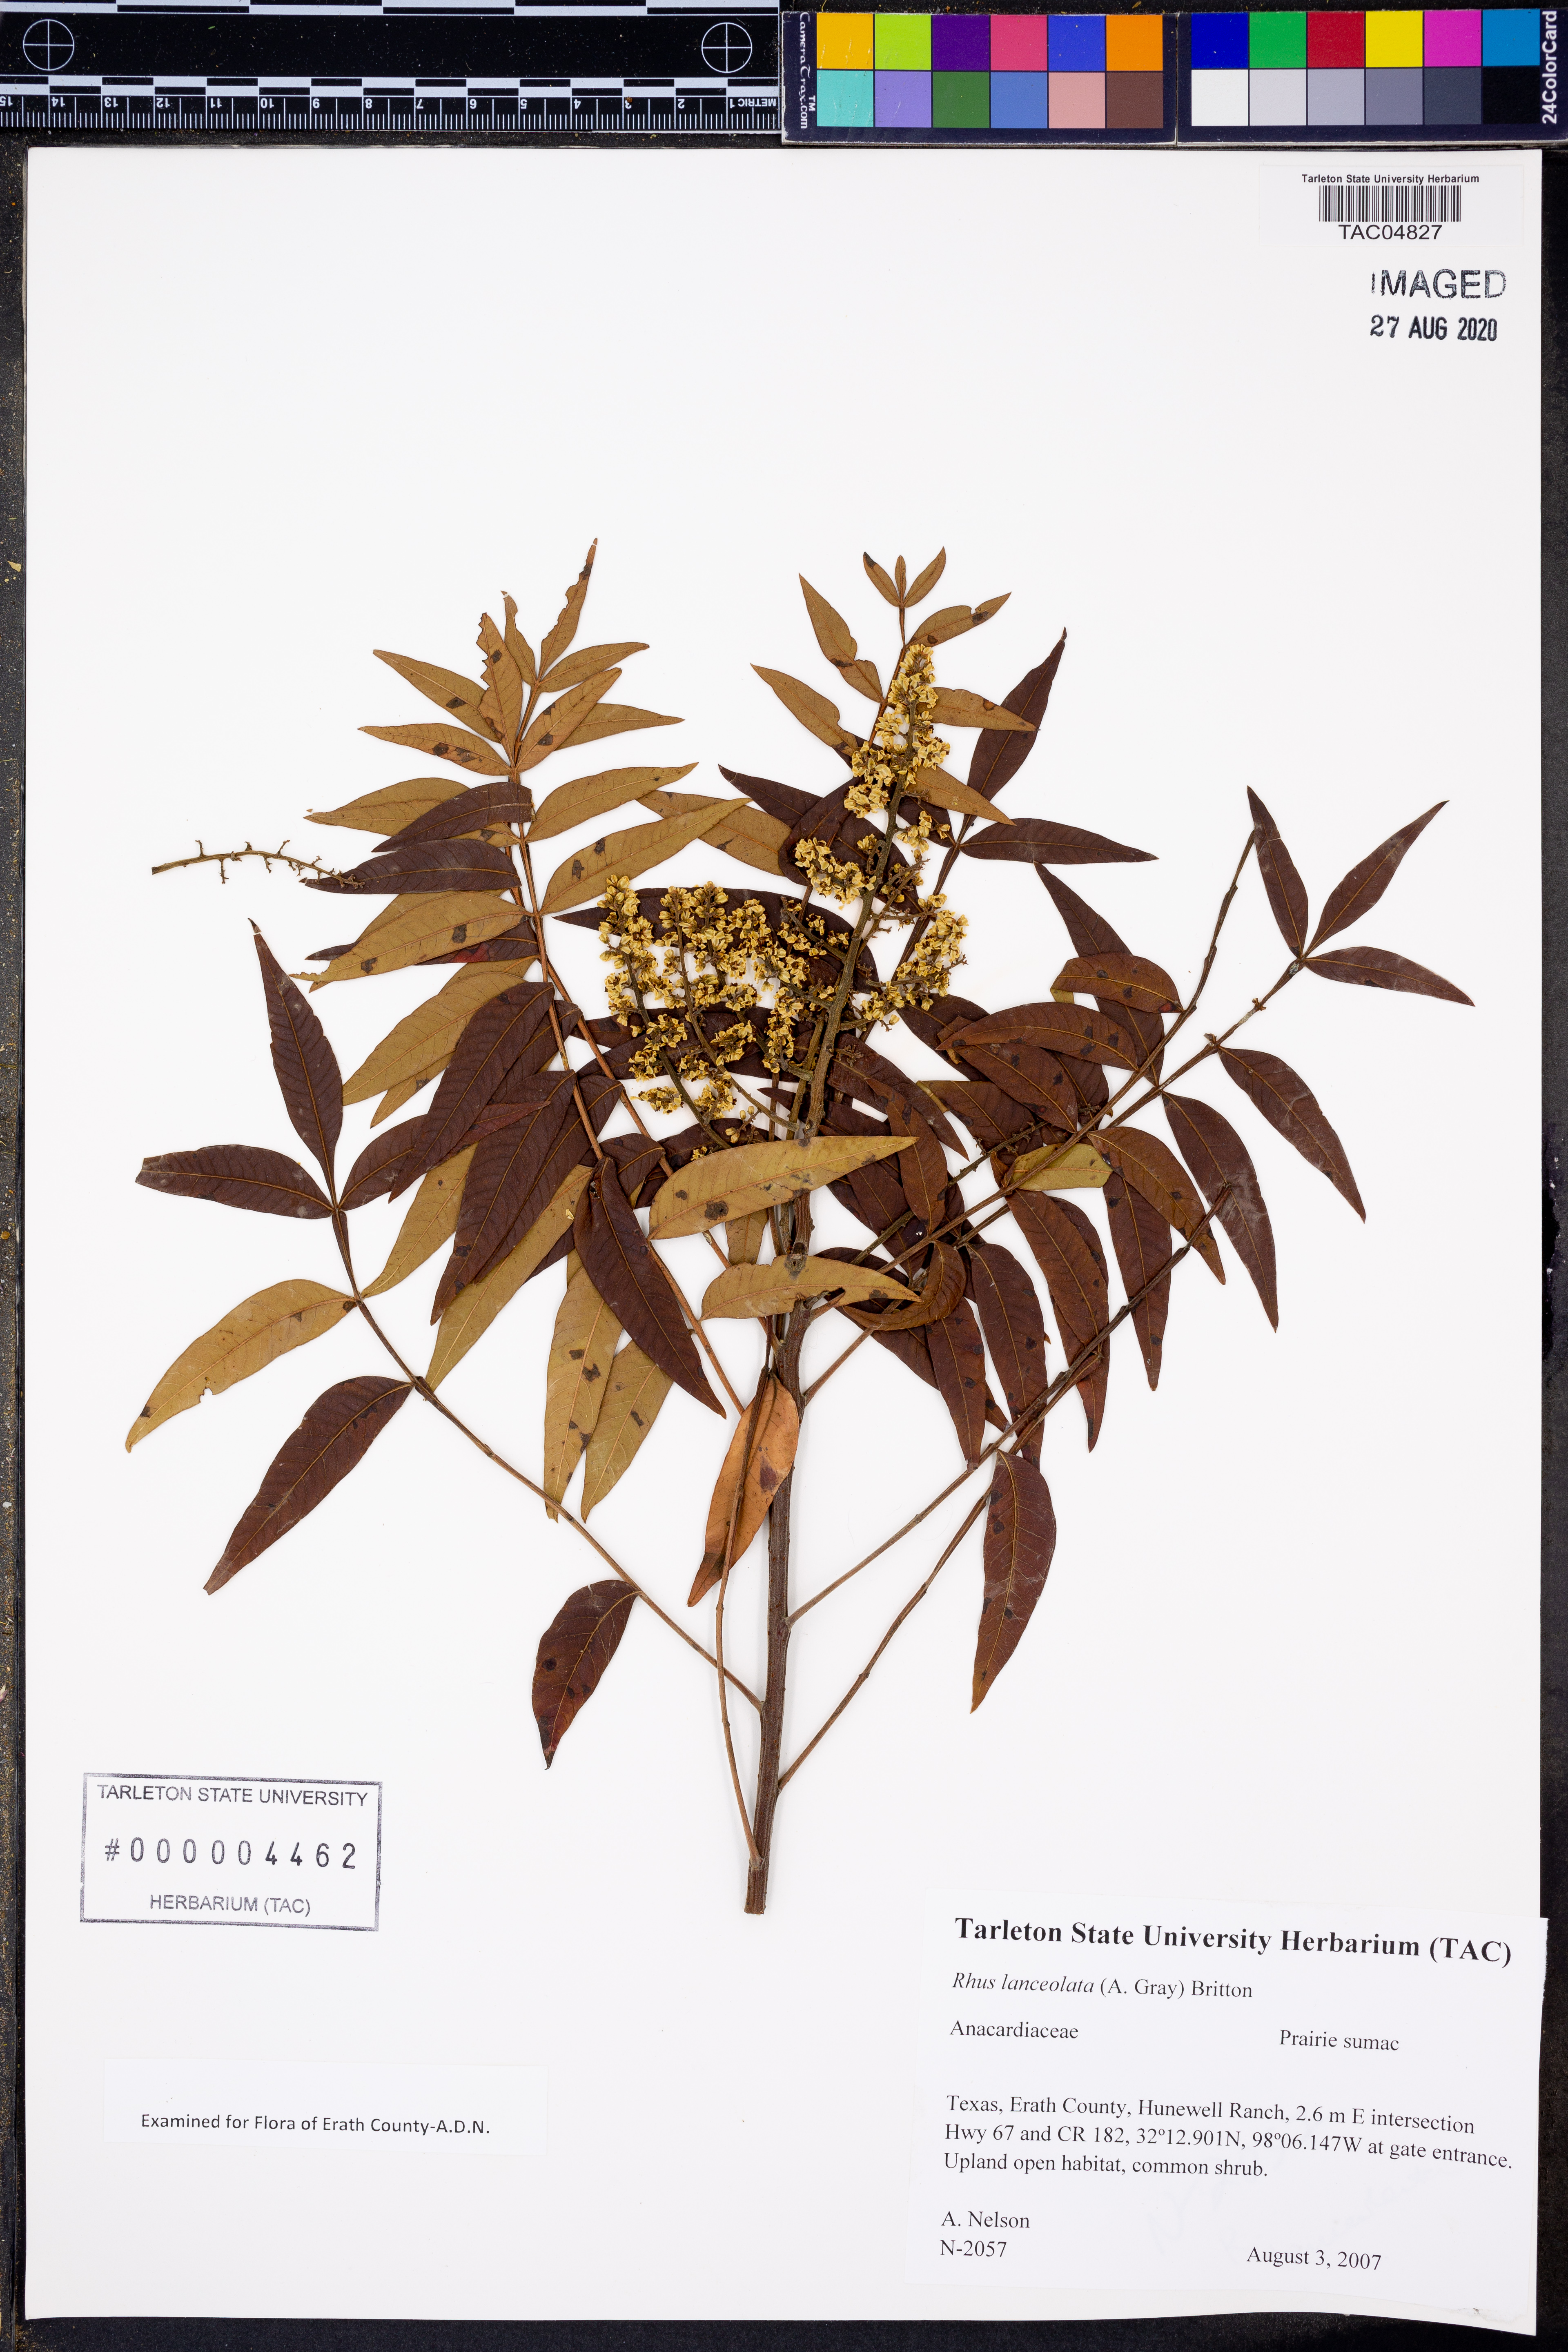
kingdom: Plantae
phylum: Tracheophyta
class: Magnoliopsida
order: Sapindales
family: Anacardiaceae
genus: Rhus
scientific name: Rhus lanceolata
